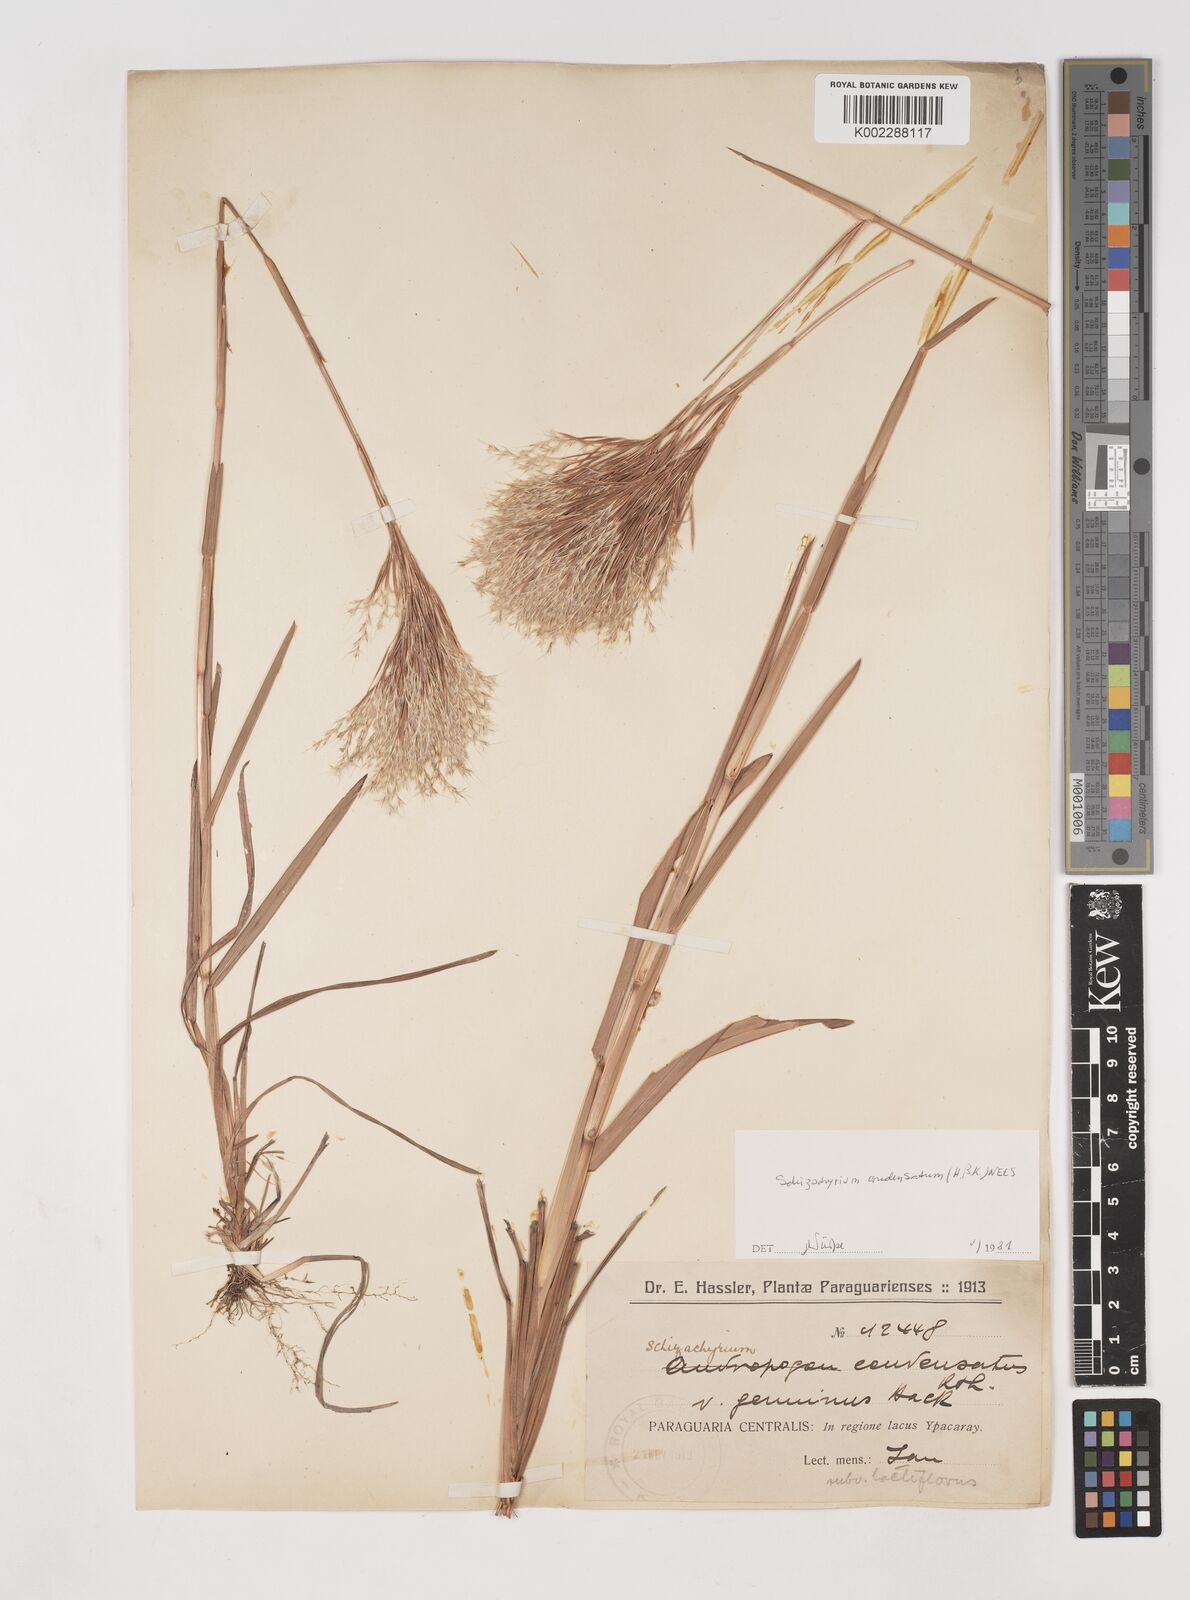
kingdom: Plantae
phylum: Tracheophyta
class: Liliopsida
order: Poales
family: Poaceae
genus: Schizachyrium
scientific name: Schizachyrium condensatum
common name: Bush beardgrass
